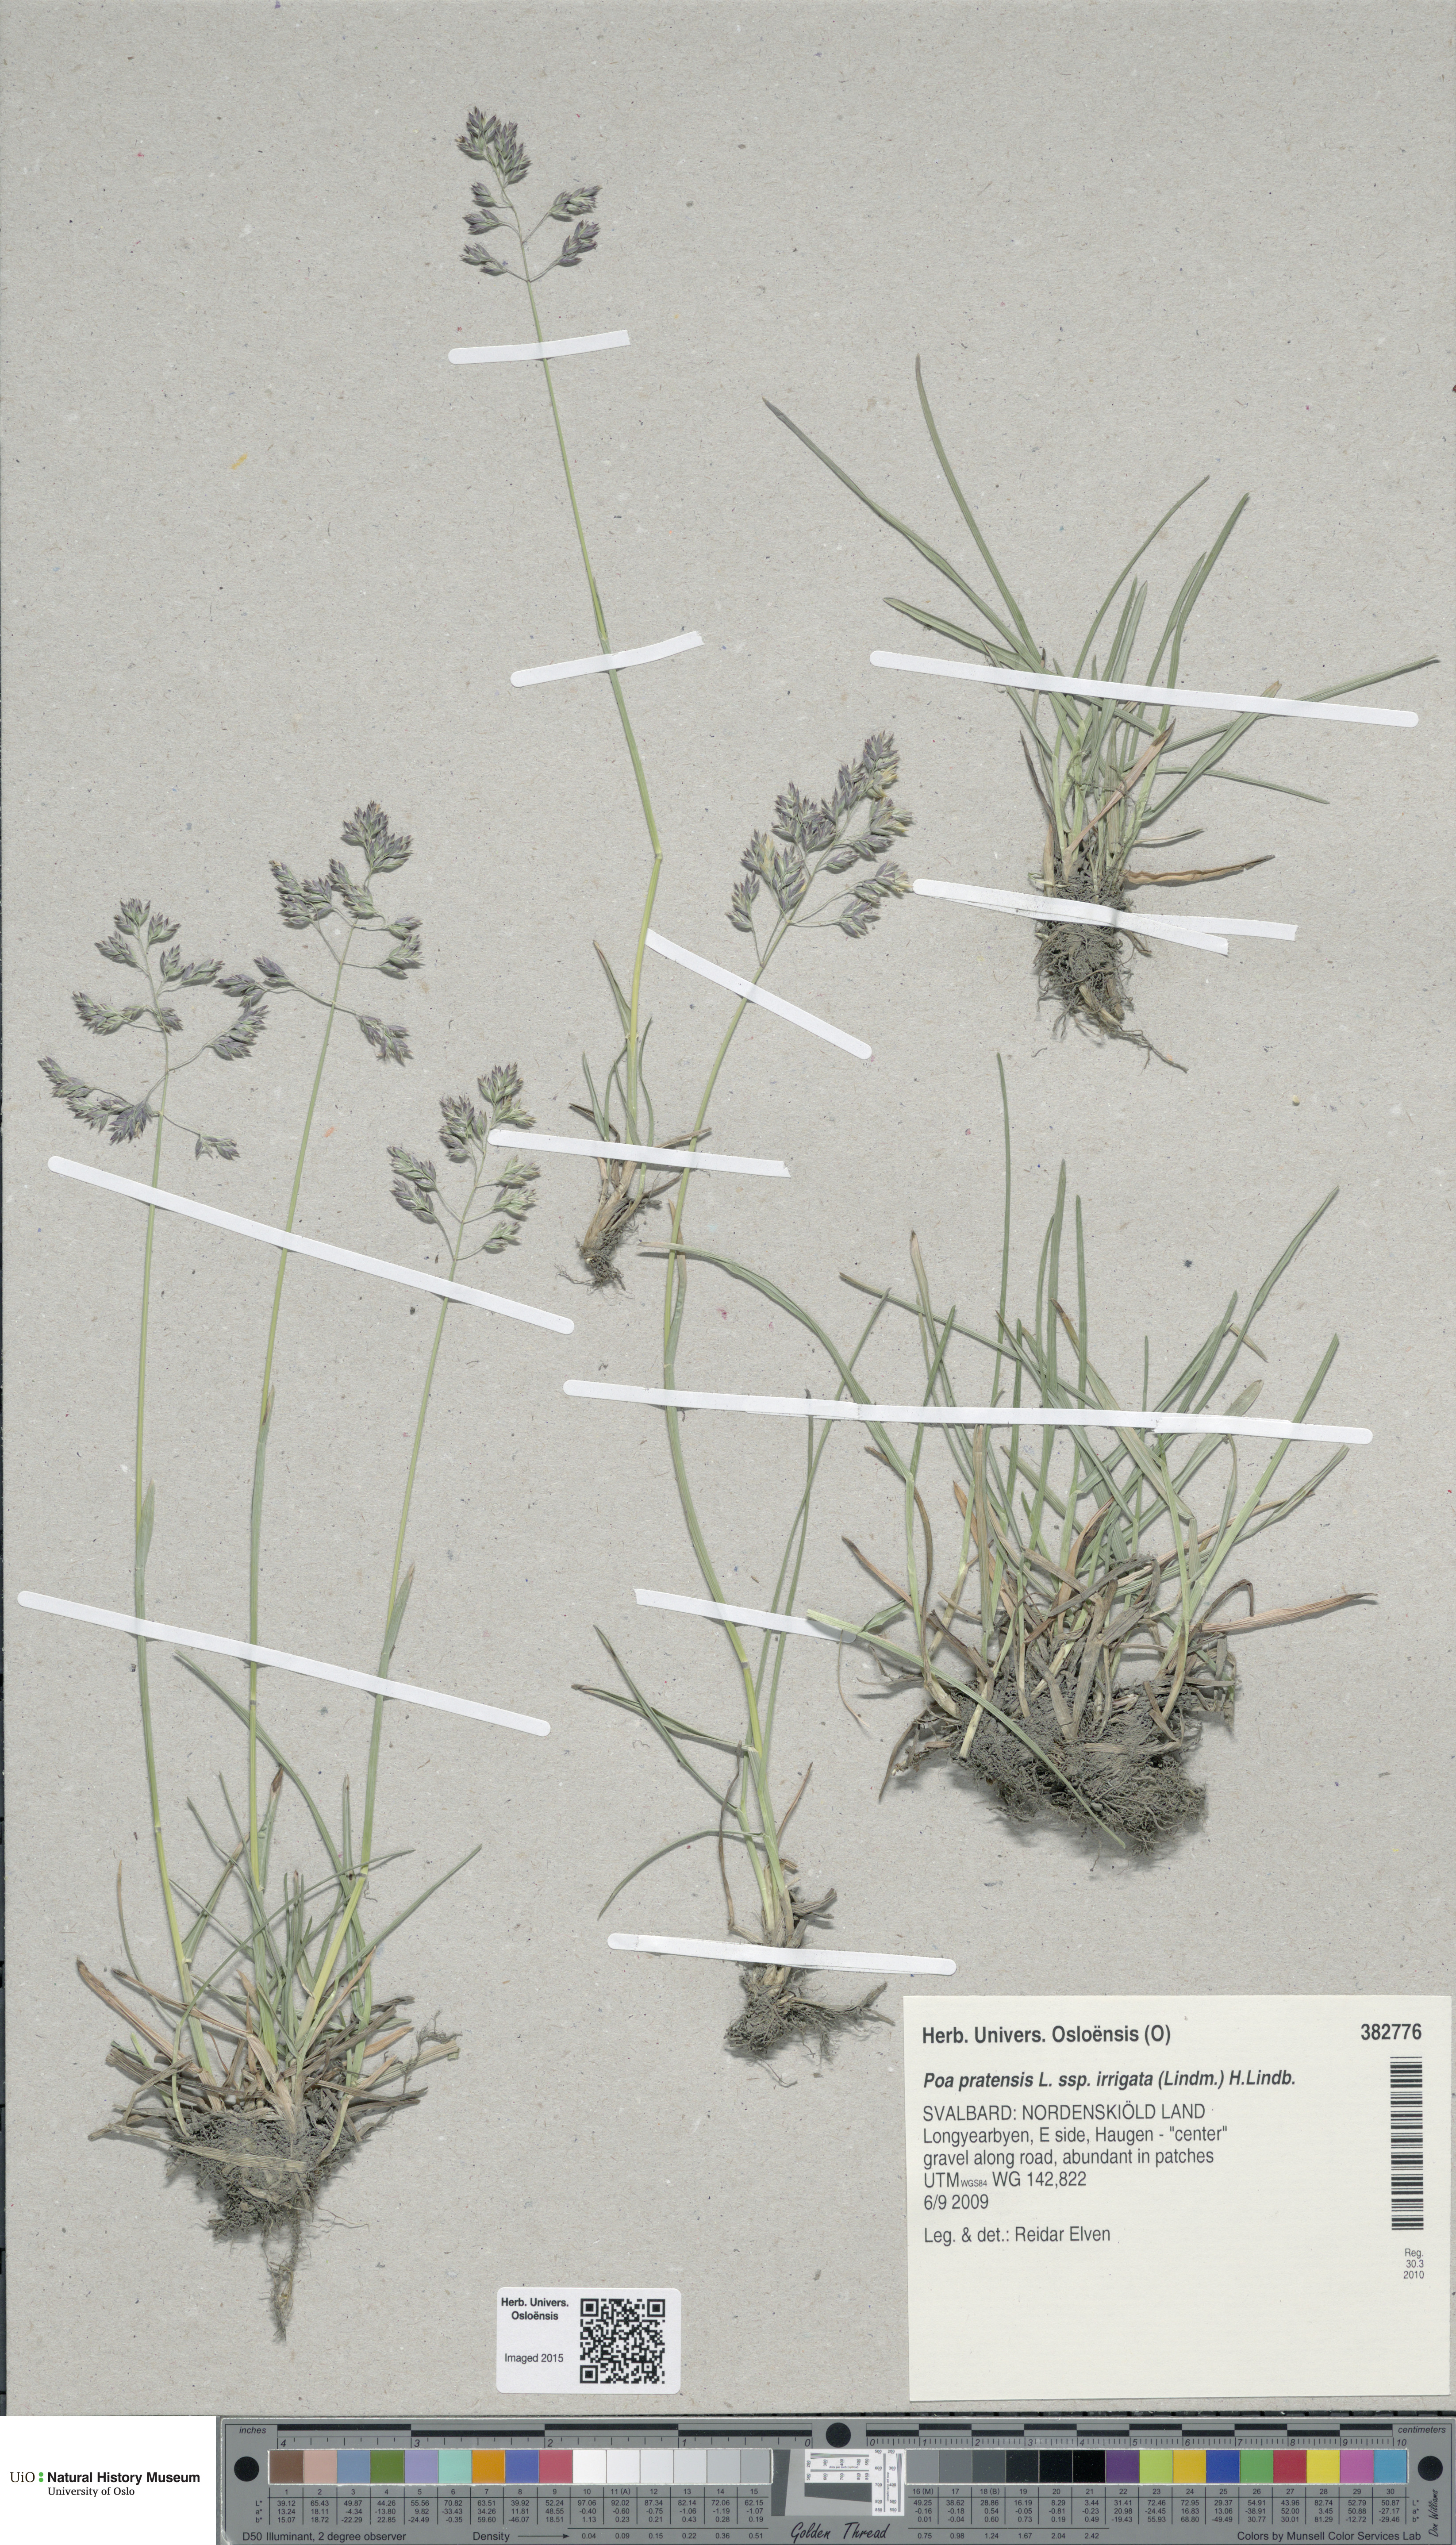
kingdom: Plantae
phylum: Tracheophyta
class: Liliopsida
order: Poales
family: Poaceae
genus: Poa
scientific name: Poa humilis
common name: Spreading meadow-grass
